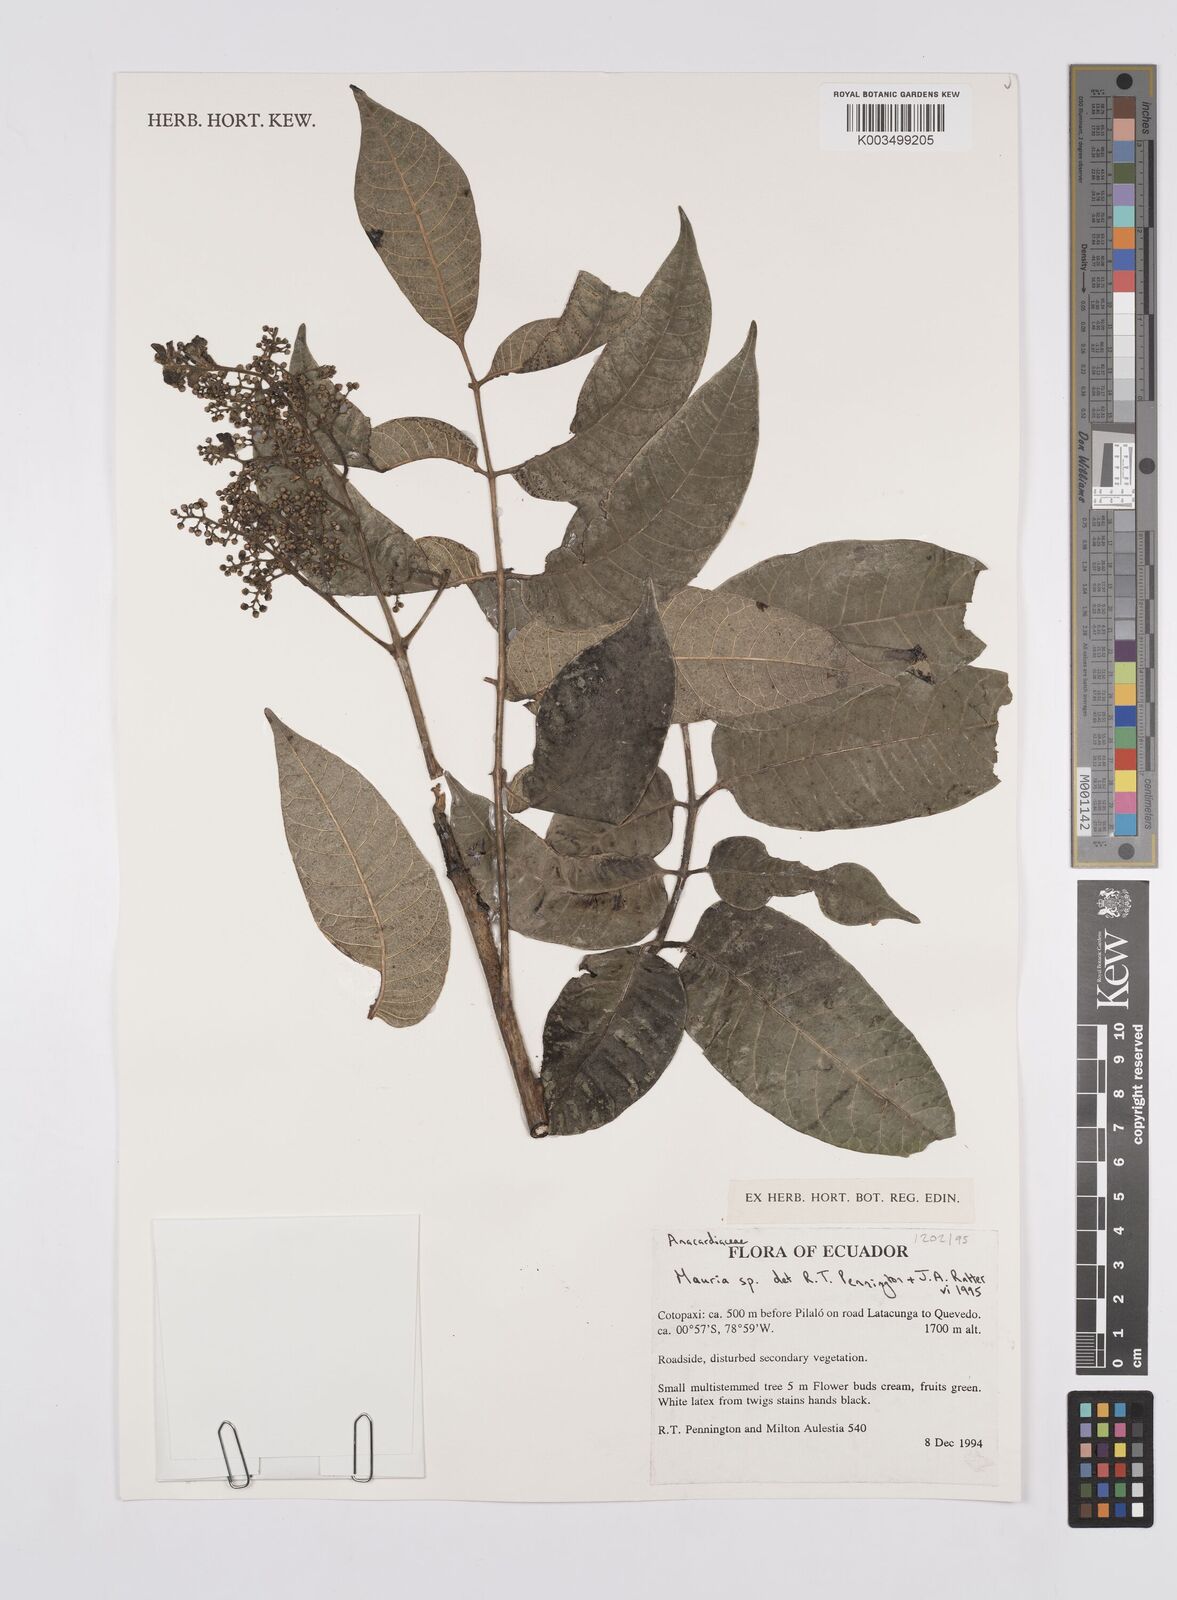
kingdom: Plantae
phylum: Tracheophyta
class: Magnoliopsida
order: Sapindales
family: Anacardiaceae
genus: Mauria
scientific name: Mauria
